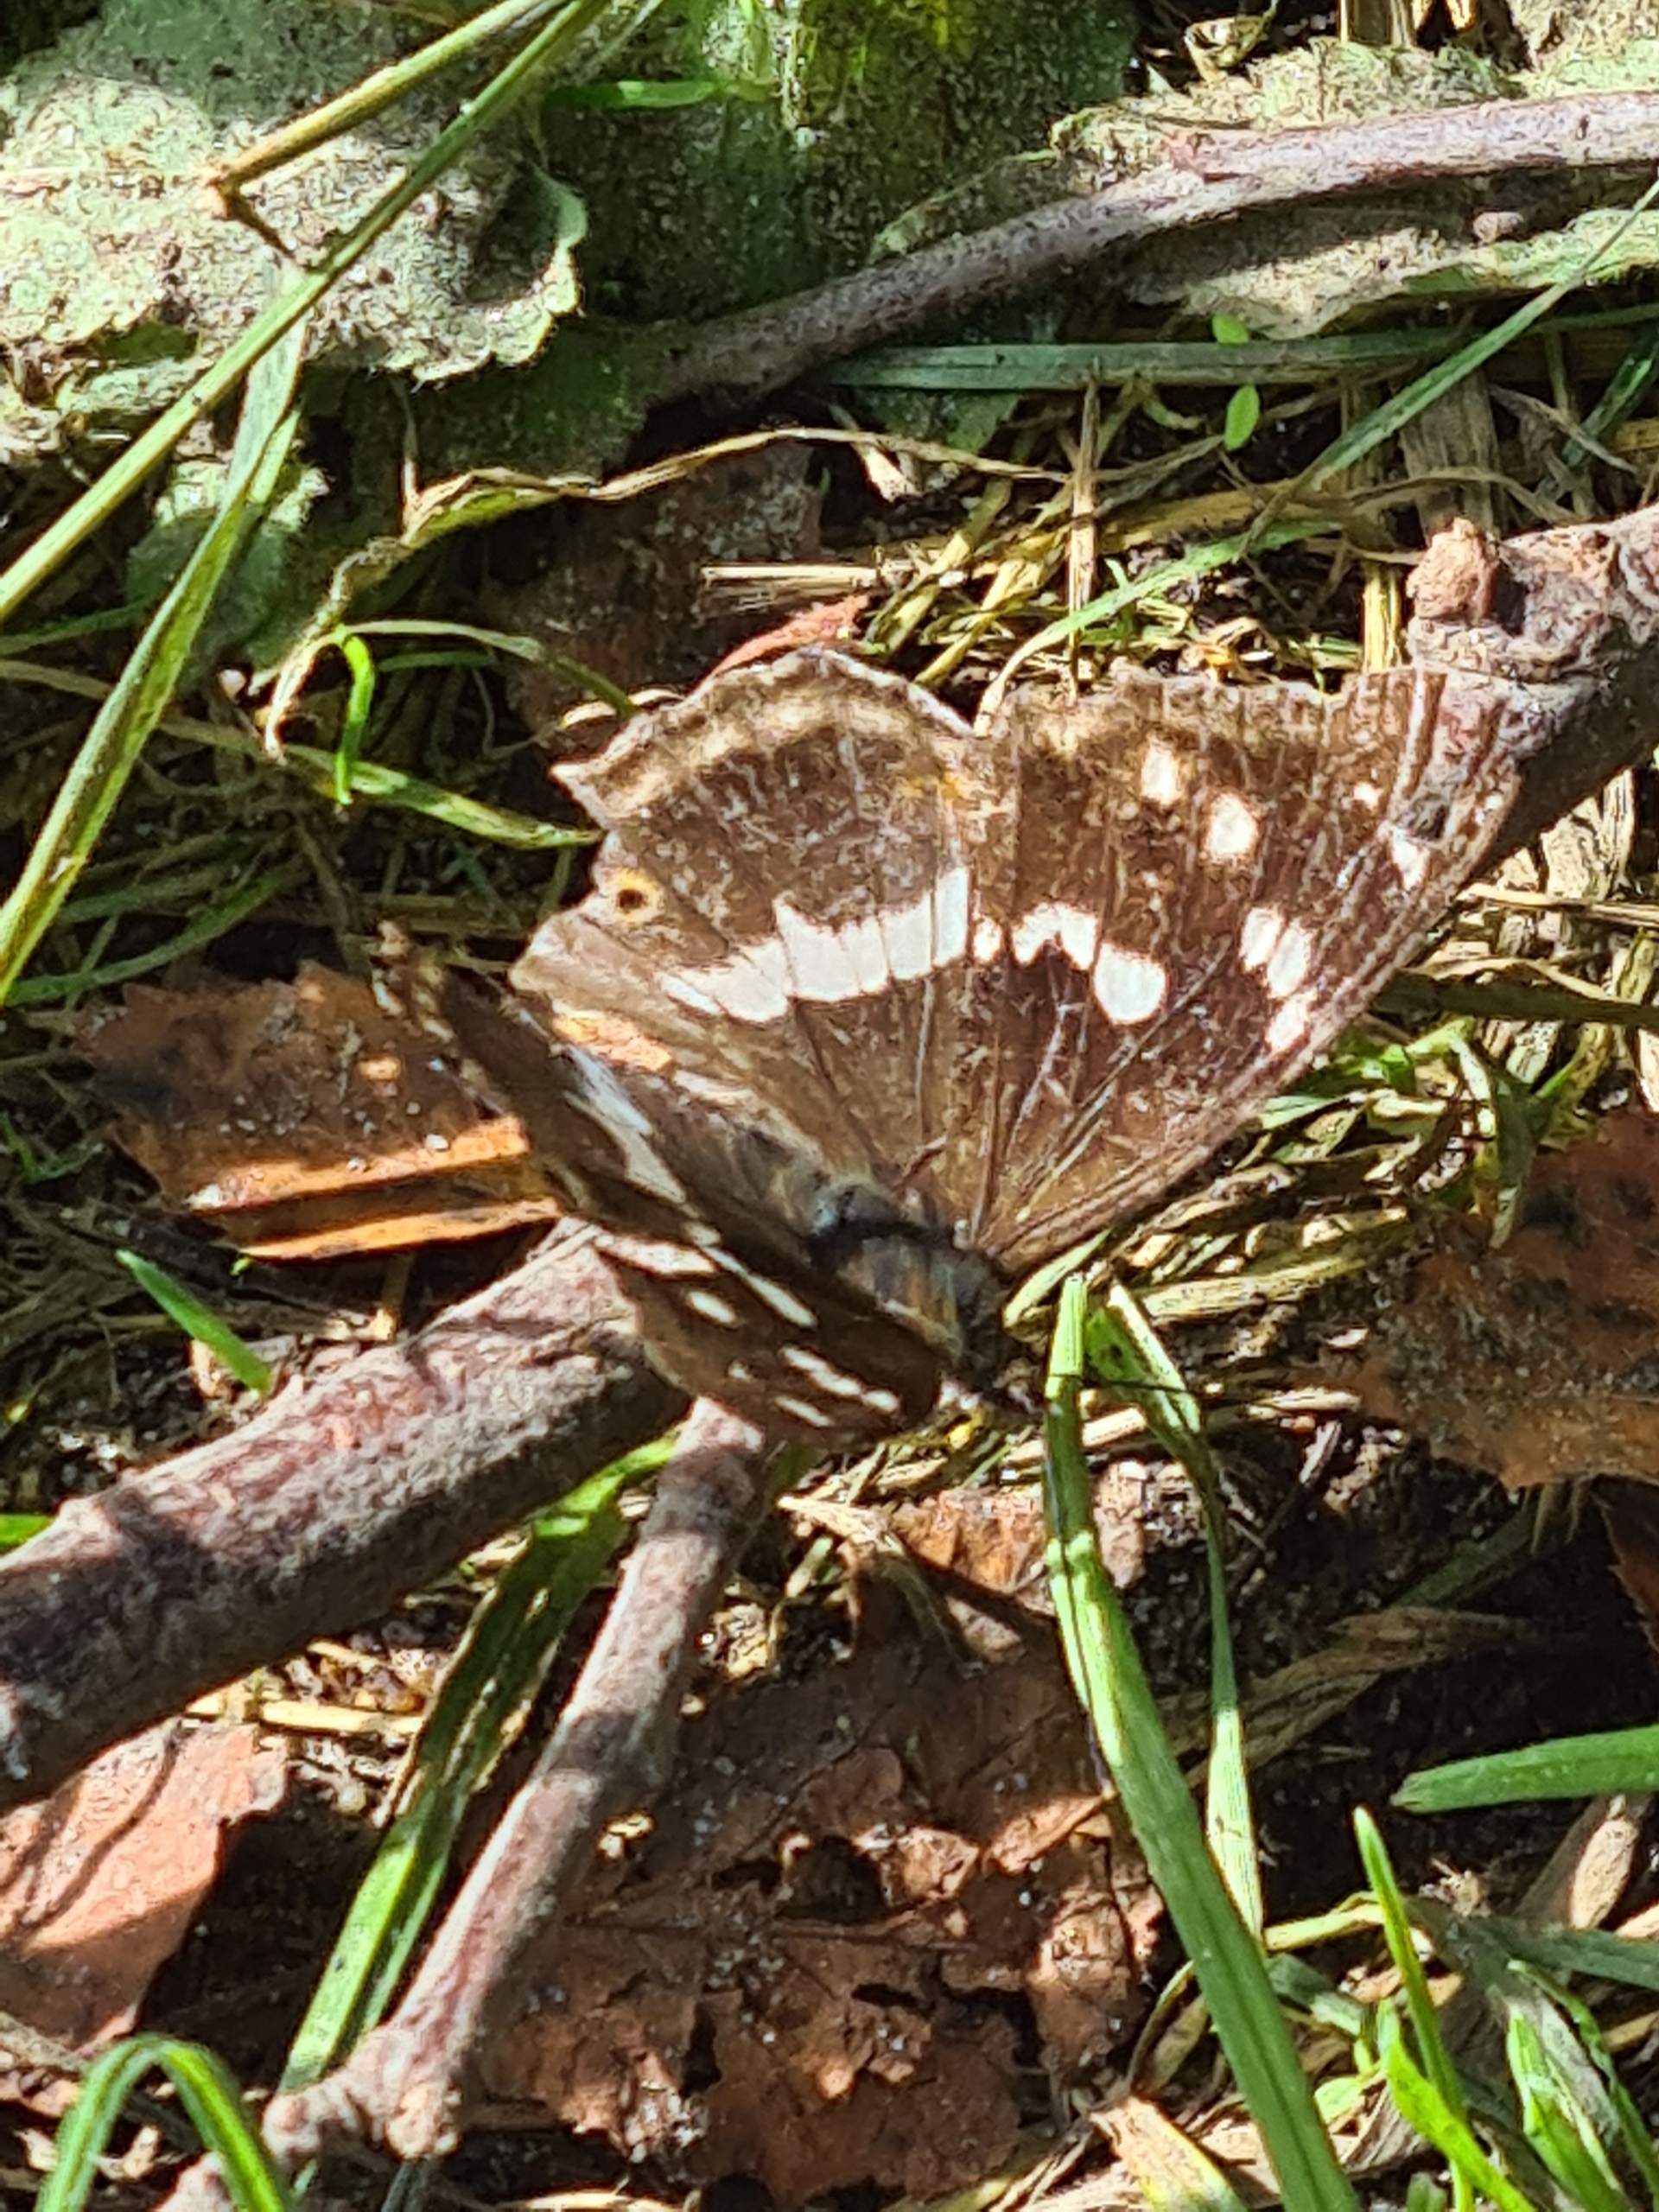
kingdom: Animalia
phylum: Arthropoda
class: Insecta
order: Lepidoptera
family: Nymphalidae
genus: Apatura
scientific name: Apatura iris
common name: Iris
